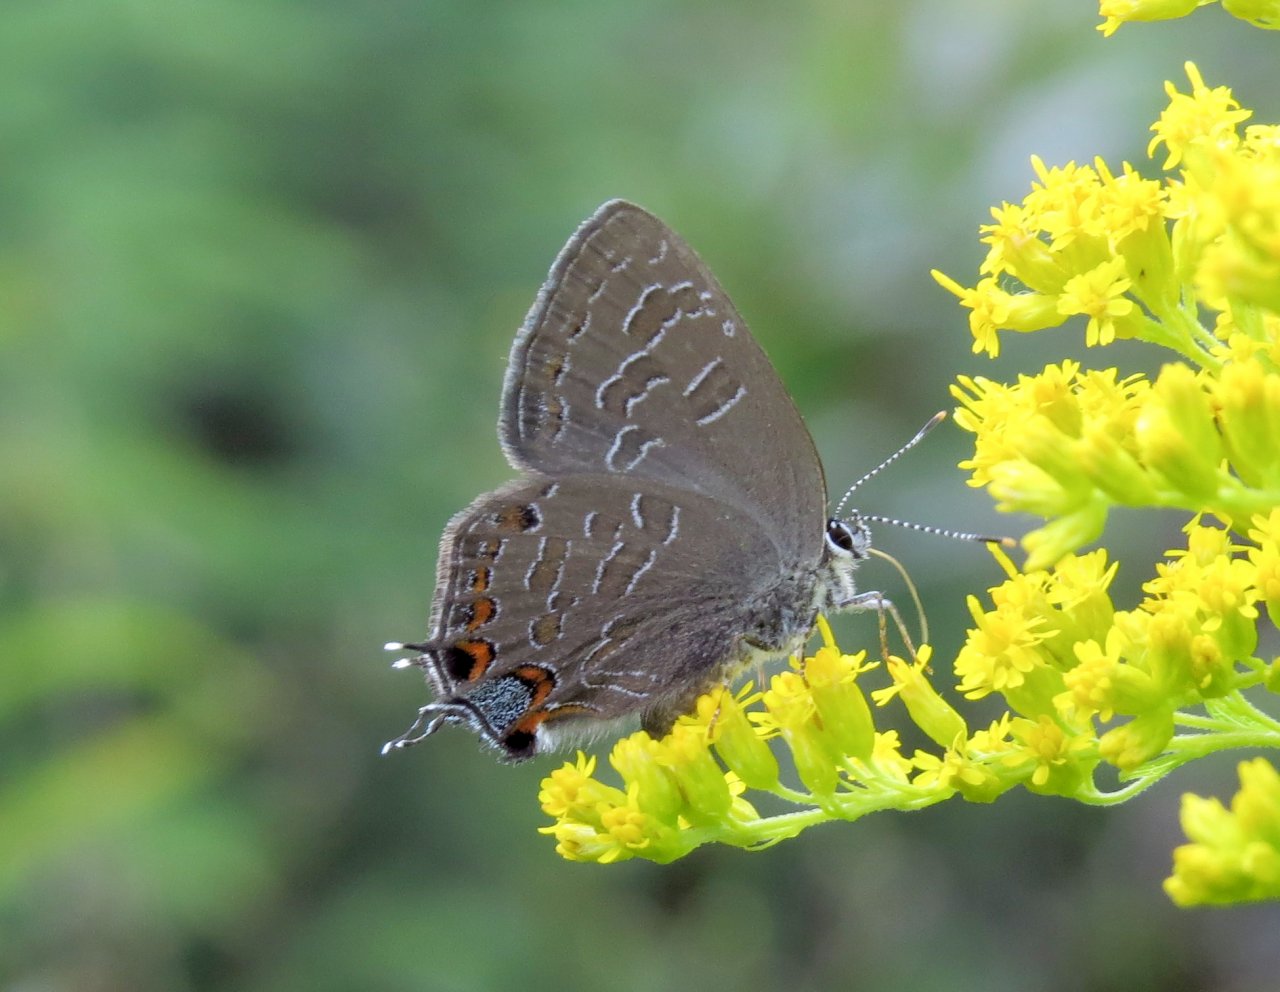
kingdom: Animalia
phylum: Arthropoda
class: Insecta
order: Lepidoptera
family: Lycaenidae
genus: Satyrium
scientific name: Satyrium liparops
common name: Striped Hairstreak
